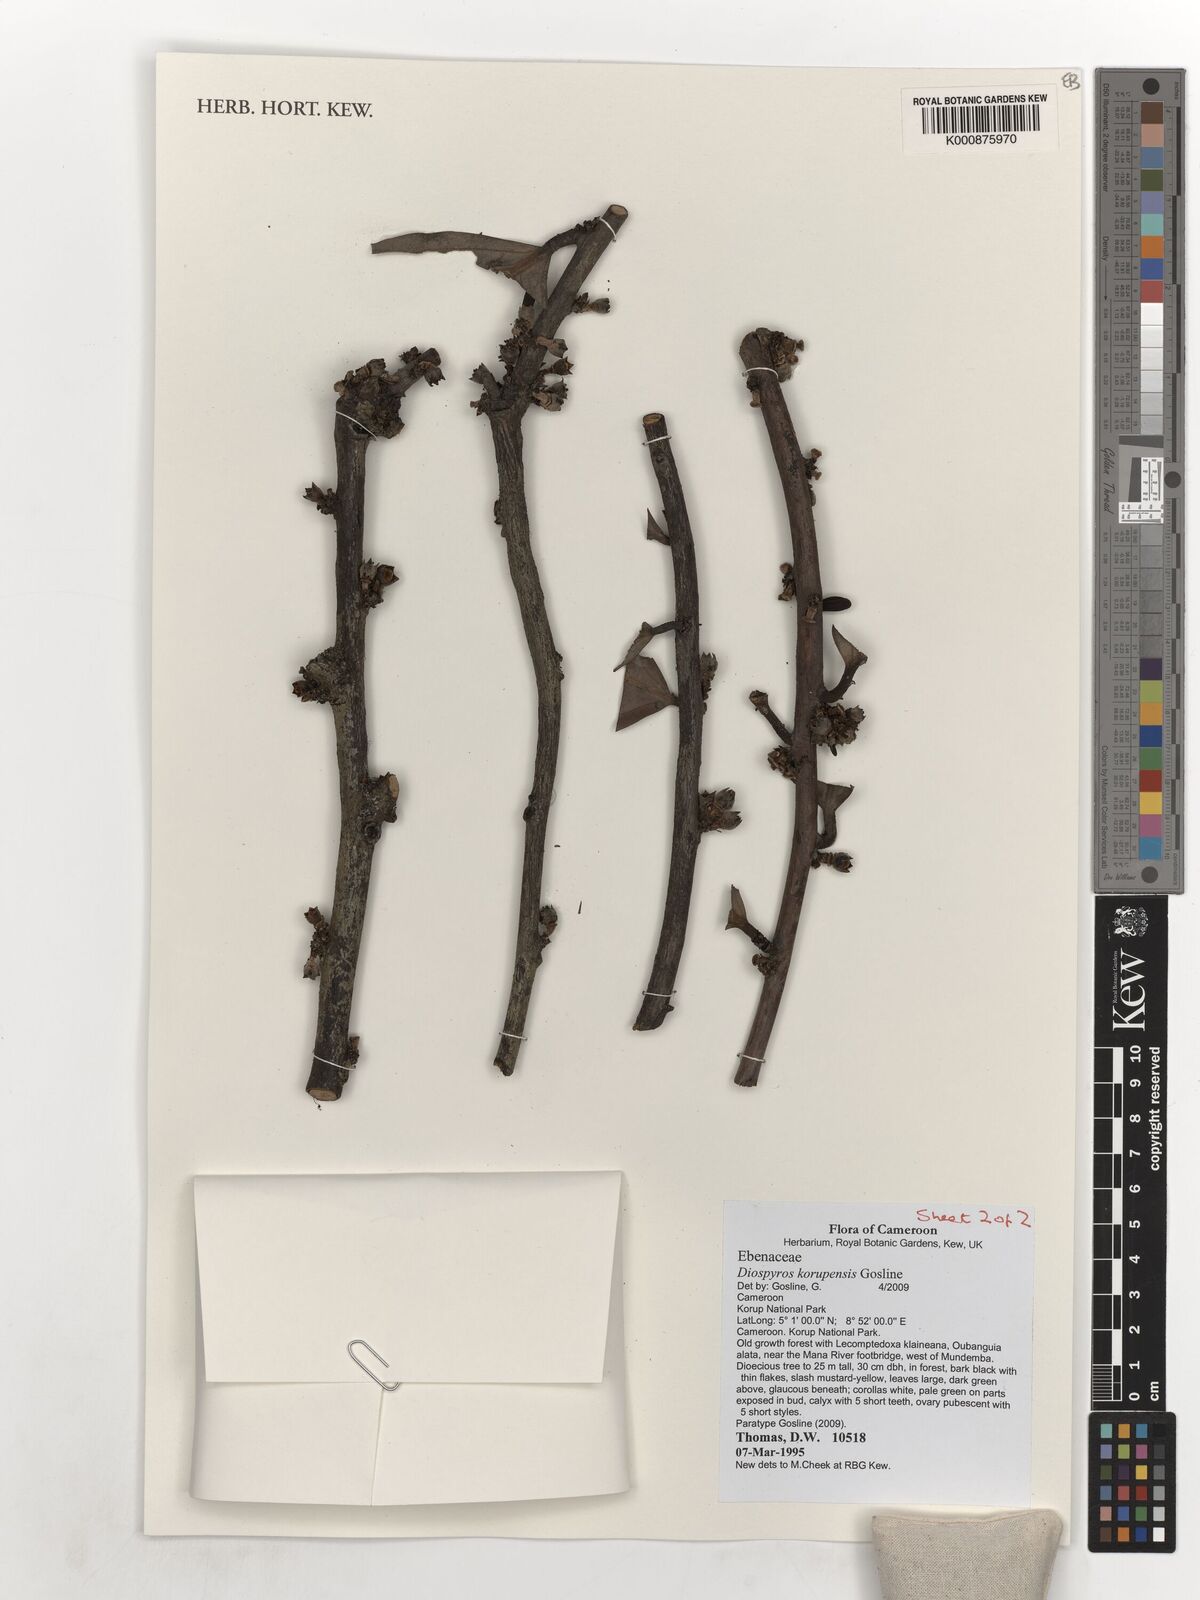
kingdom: Plantae
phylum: Tracheophyta
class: Magnoliopsida
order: Ericales
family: Ebenaceae
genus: Diospyros
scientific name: Diospyros korupensis
